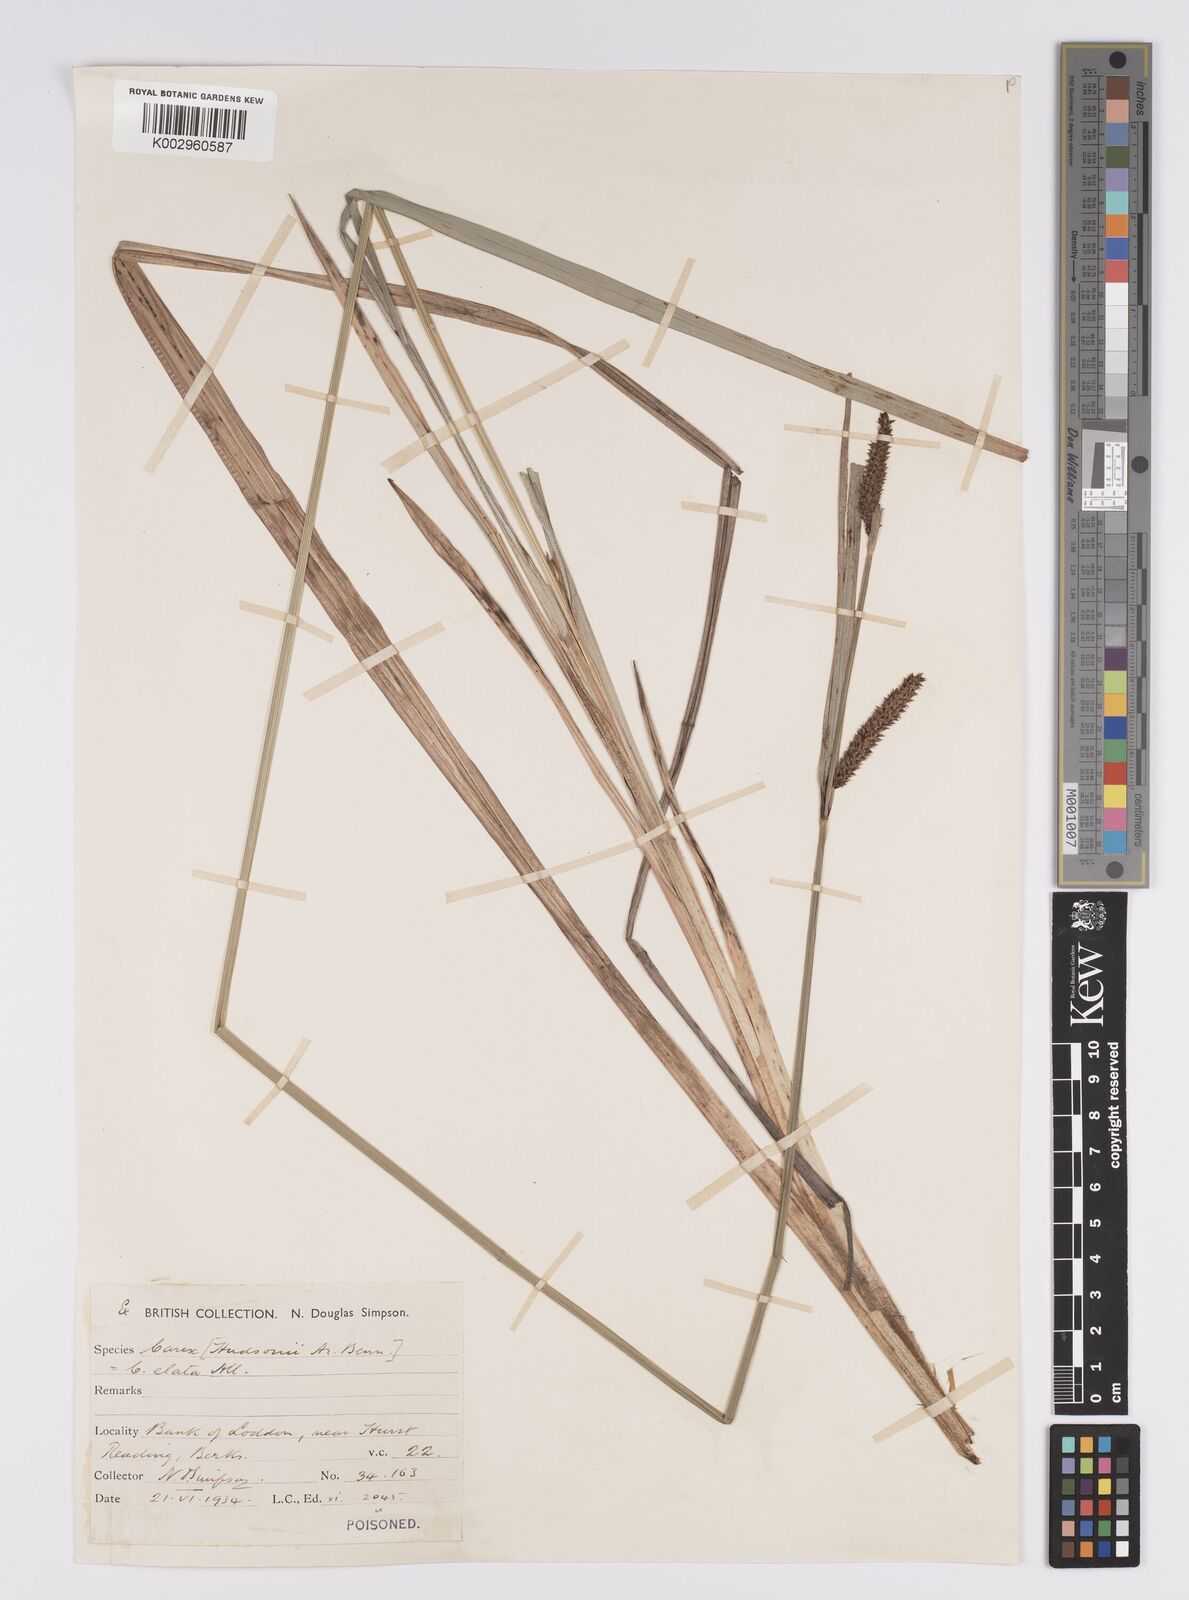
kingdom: Plantae
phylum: Tracheophyta
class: Liliopsida
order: Poales
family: Cyperaceae
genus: Carex
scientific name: Carex acutiformis
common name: Lesser pond-sedge
